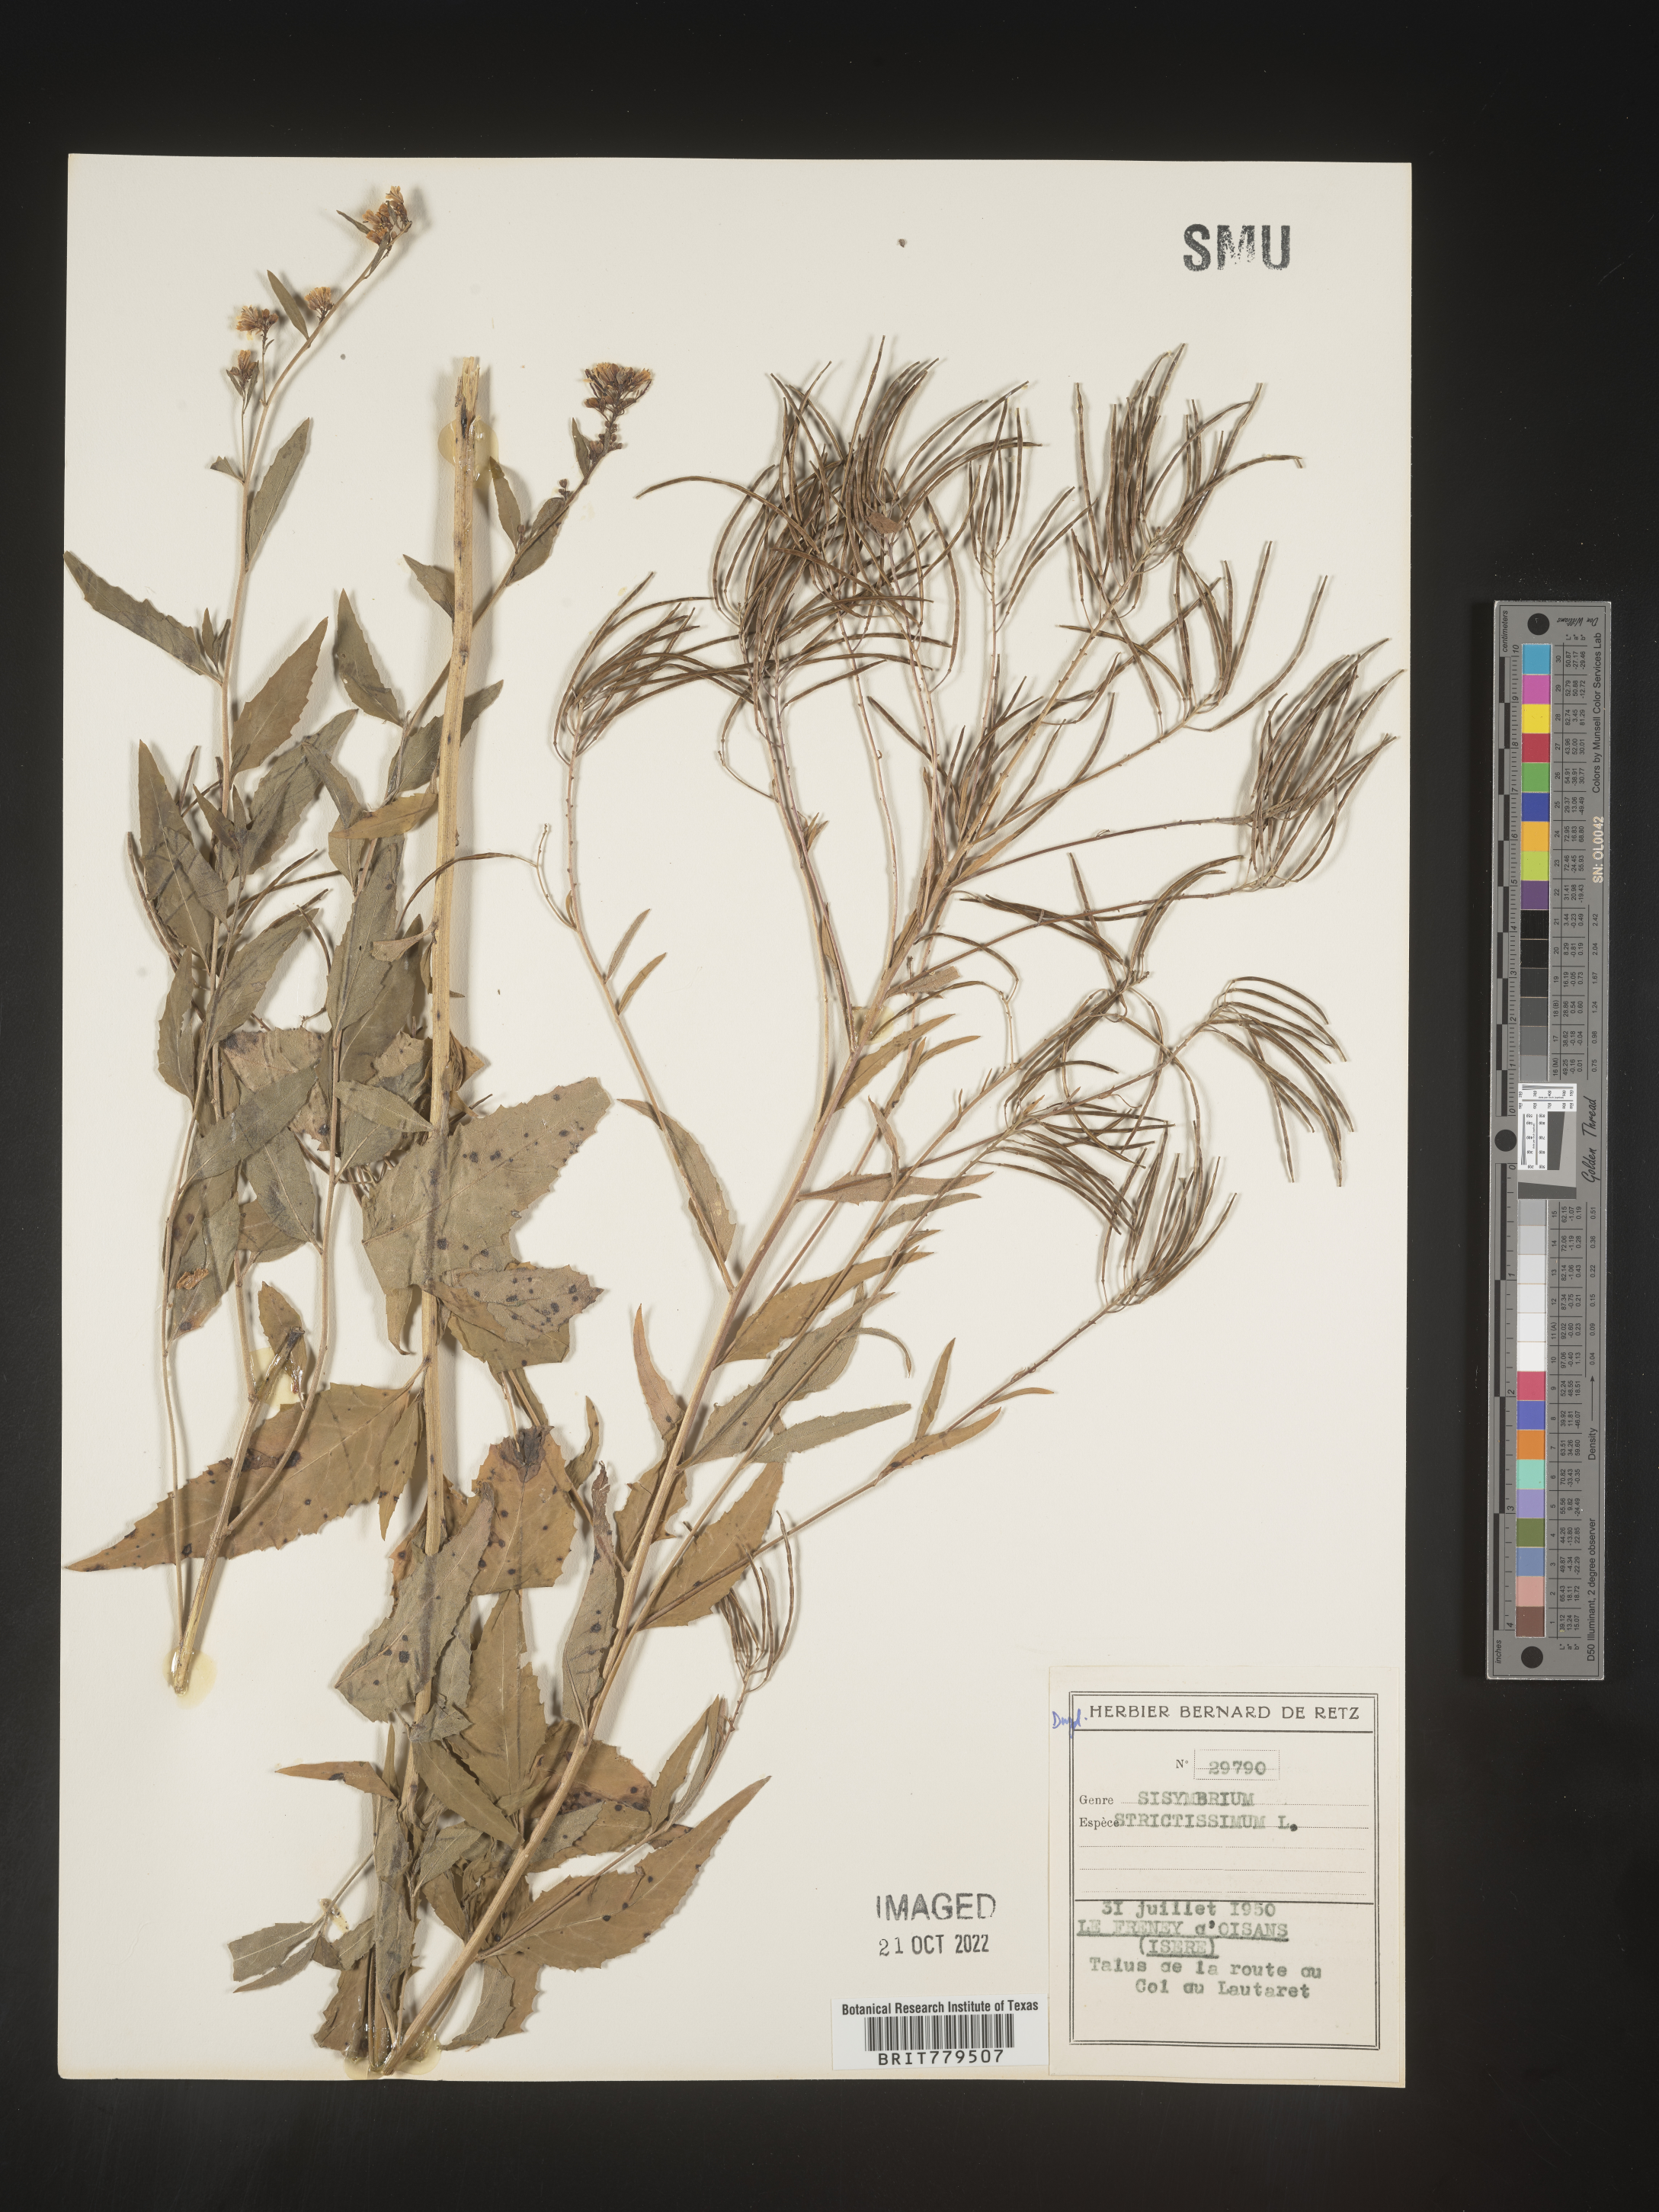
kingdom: Plantae
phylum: Tracheophyta
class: Magnoliopsida
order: Brassicales
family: Brassicaceae
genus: Sisymbrium
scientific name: Sisymbrium
